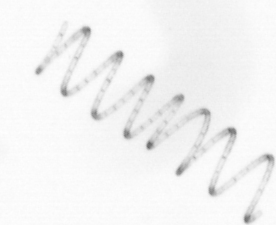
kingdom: Chromista
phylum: Ochrophyta
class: Bacillariophyceae
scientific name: Bacillariophyceae
